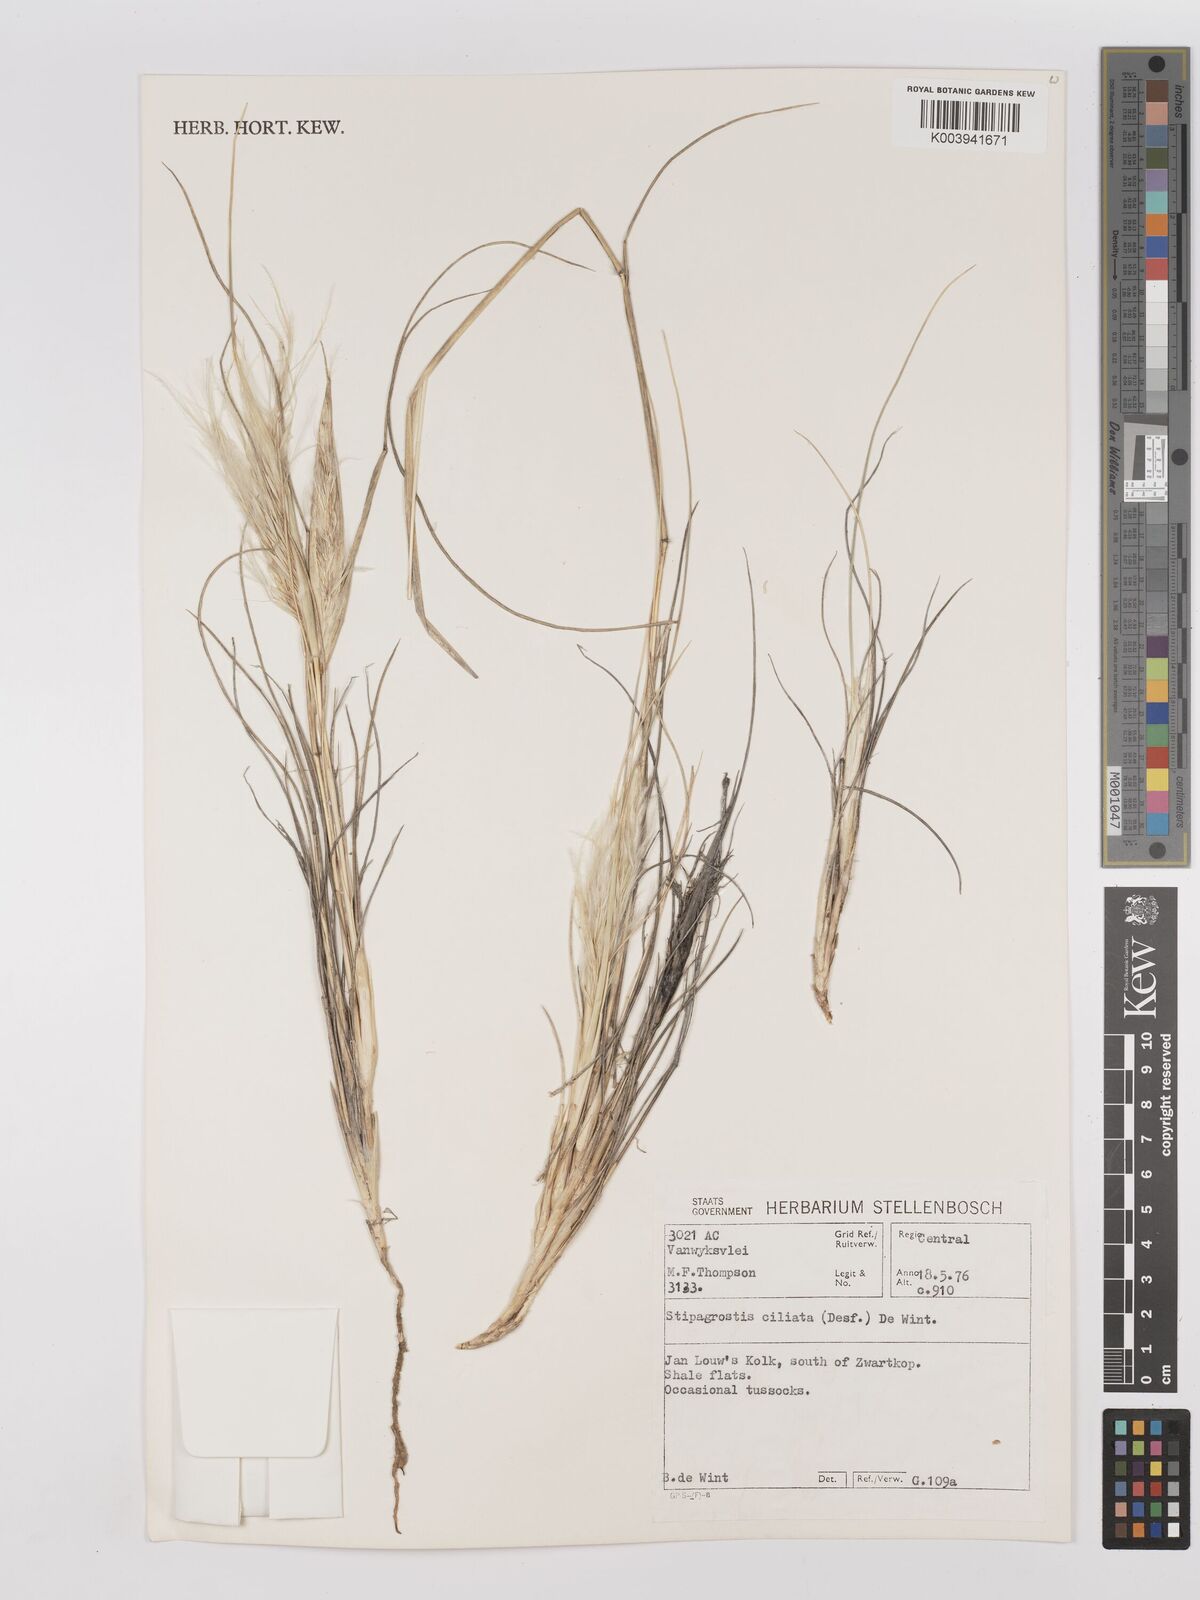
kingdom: Plantae
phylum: Tracheophyta
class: Liliopsida
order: Poales
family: Poaceae
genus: Stipagrostis
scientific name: Stipagrostis ciliata
